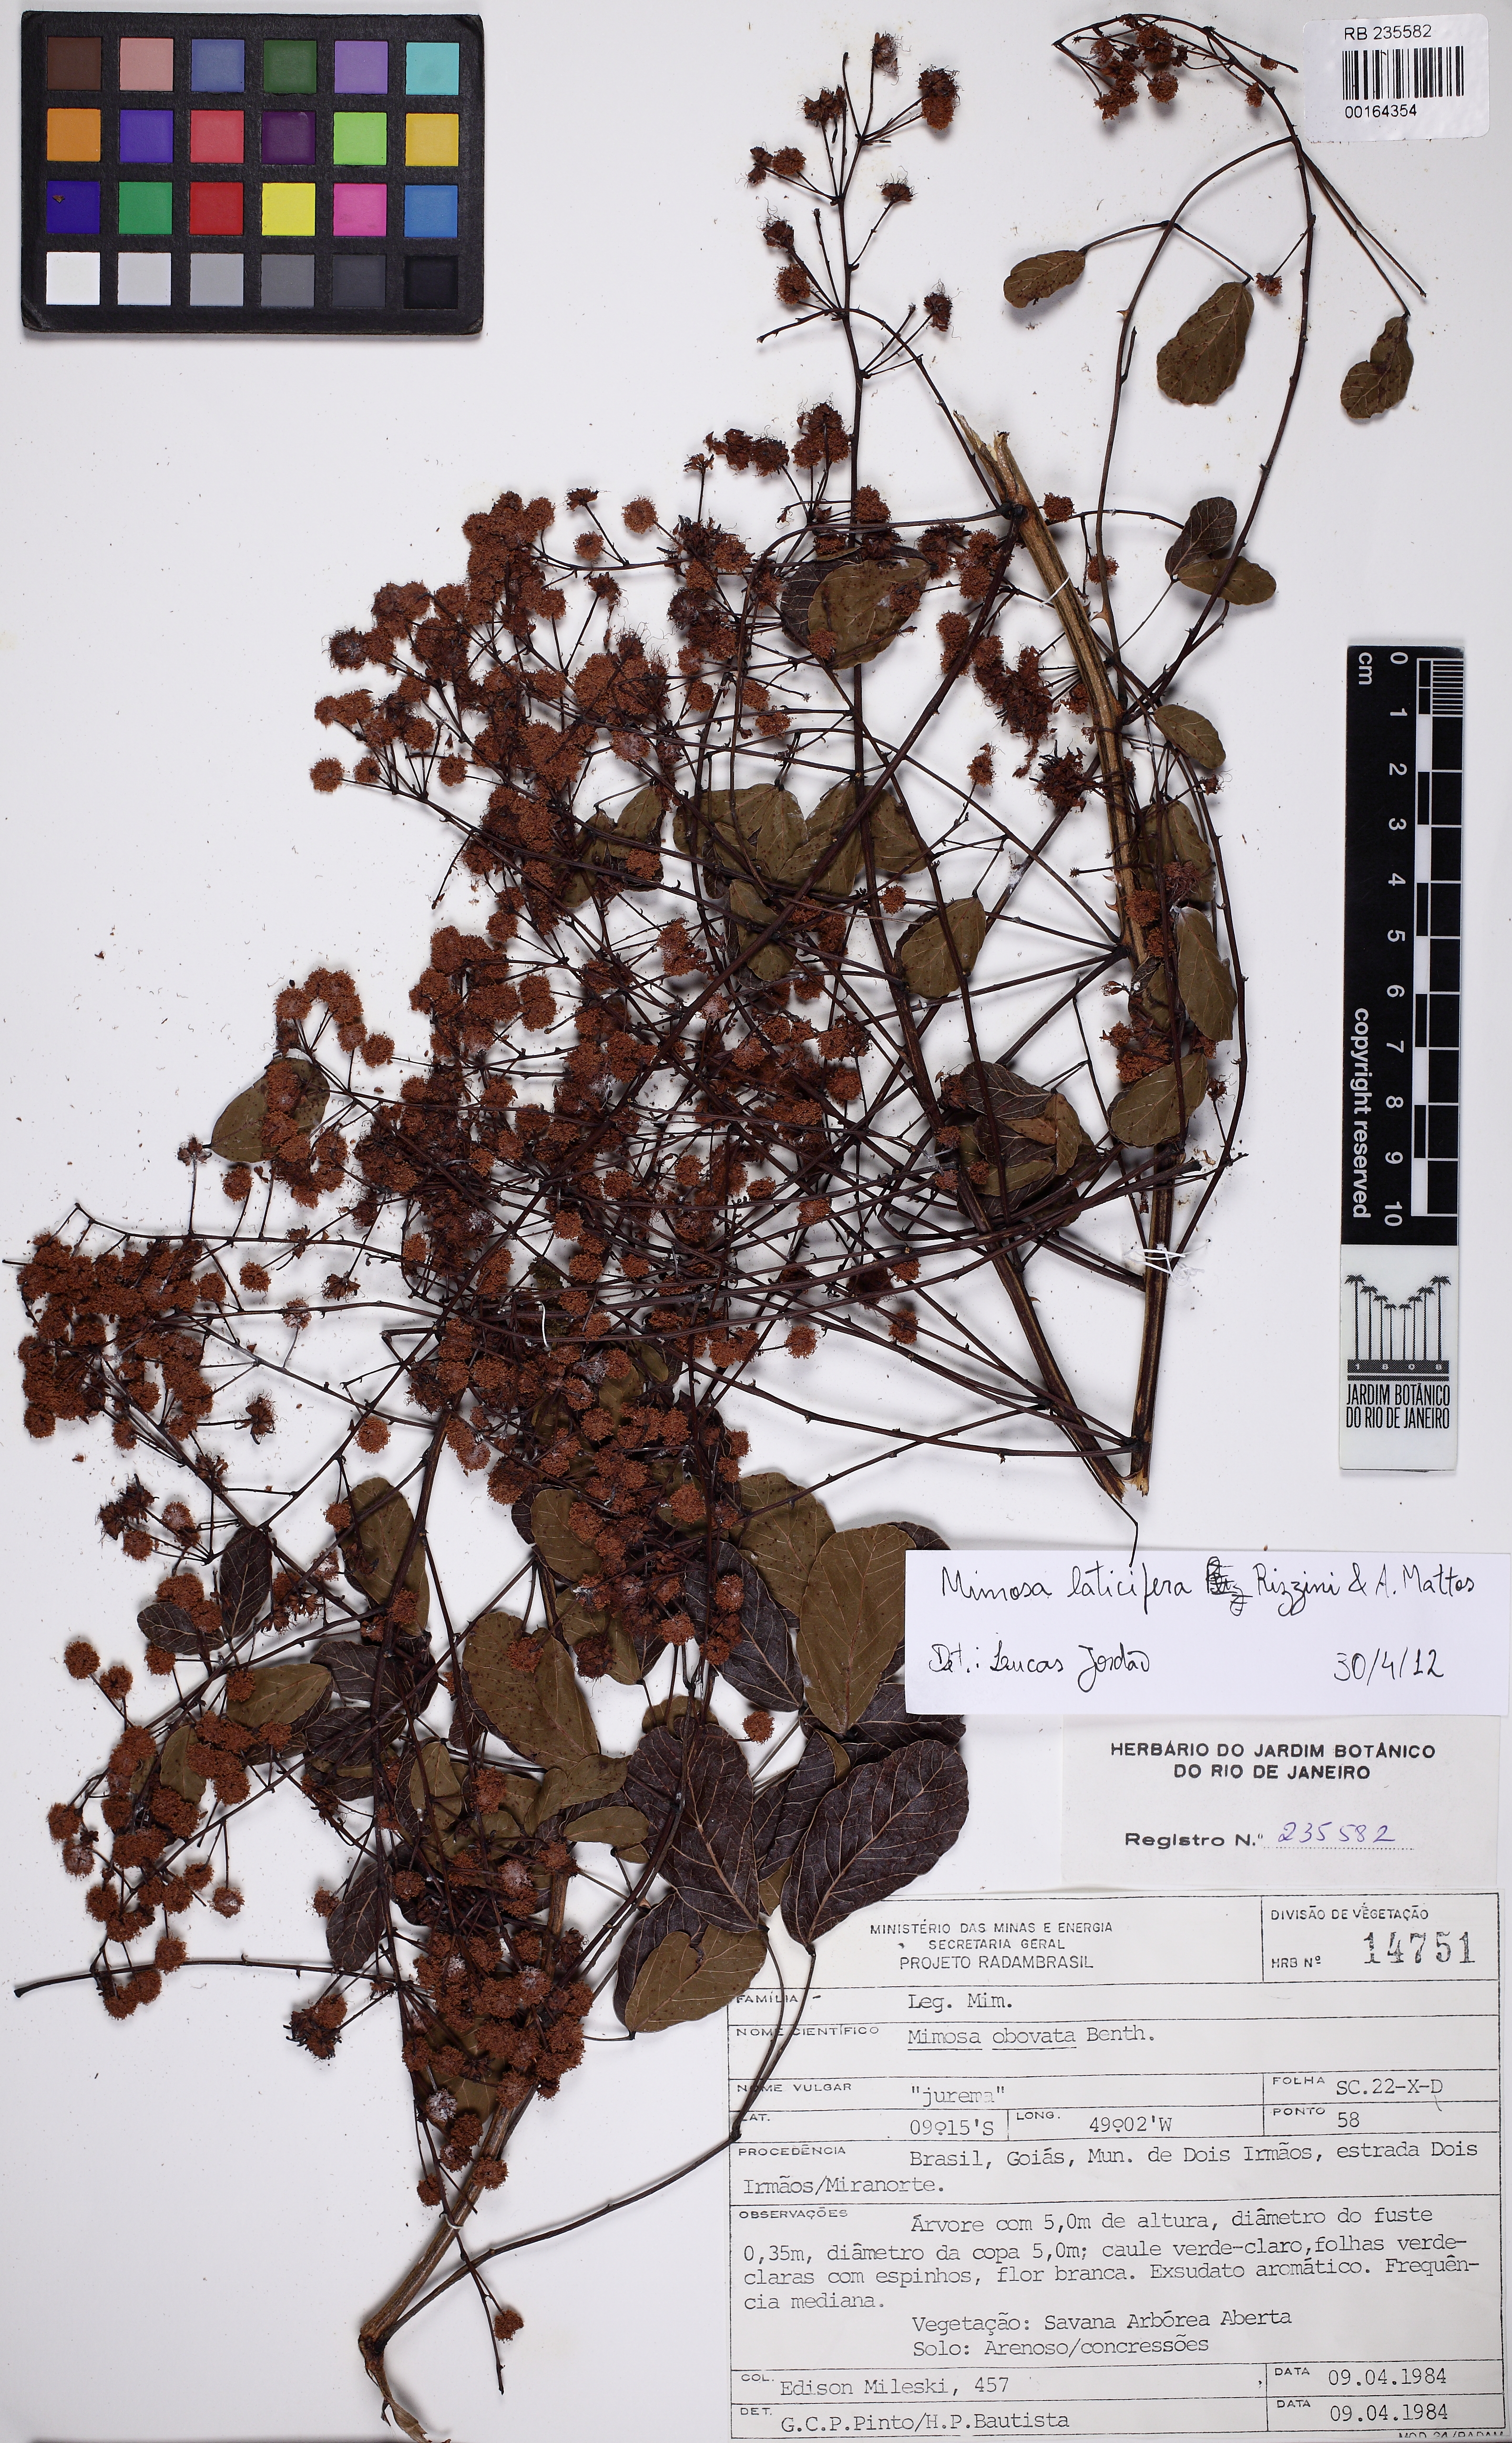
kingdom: Plantae
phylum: Tracheophyta
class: Magnoliopsida
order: Fabales
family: Fabaceae
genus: Mimosa
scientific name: Mimosa laticifera
